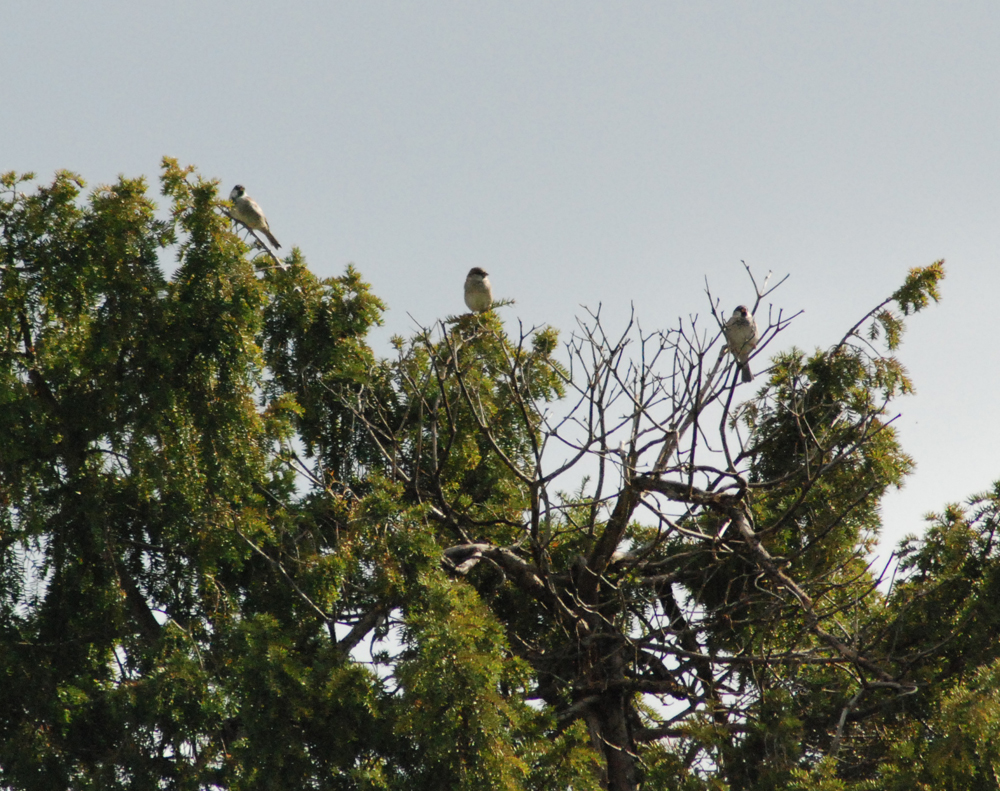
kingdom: Animalia
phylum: Chordata
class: Aves
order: Passeriformes
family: Passeridae
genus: Passer
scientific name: Passer domesticus
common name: House sparrow
